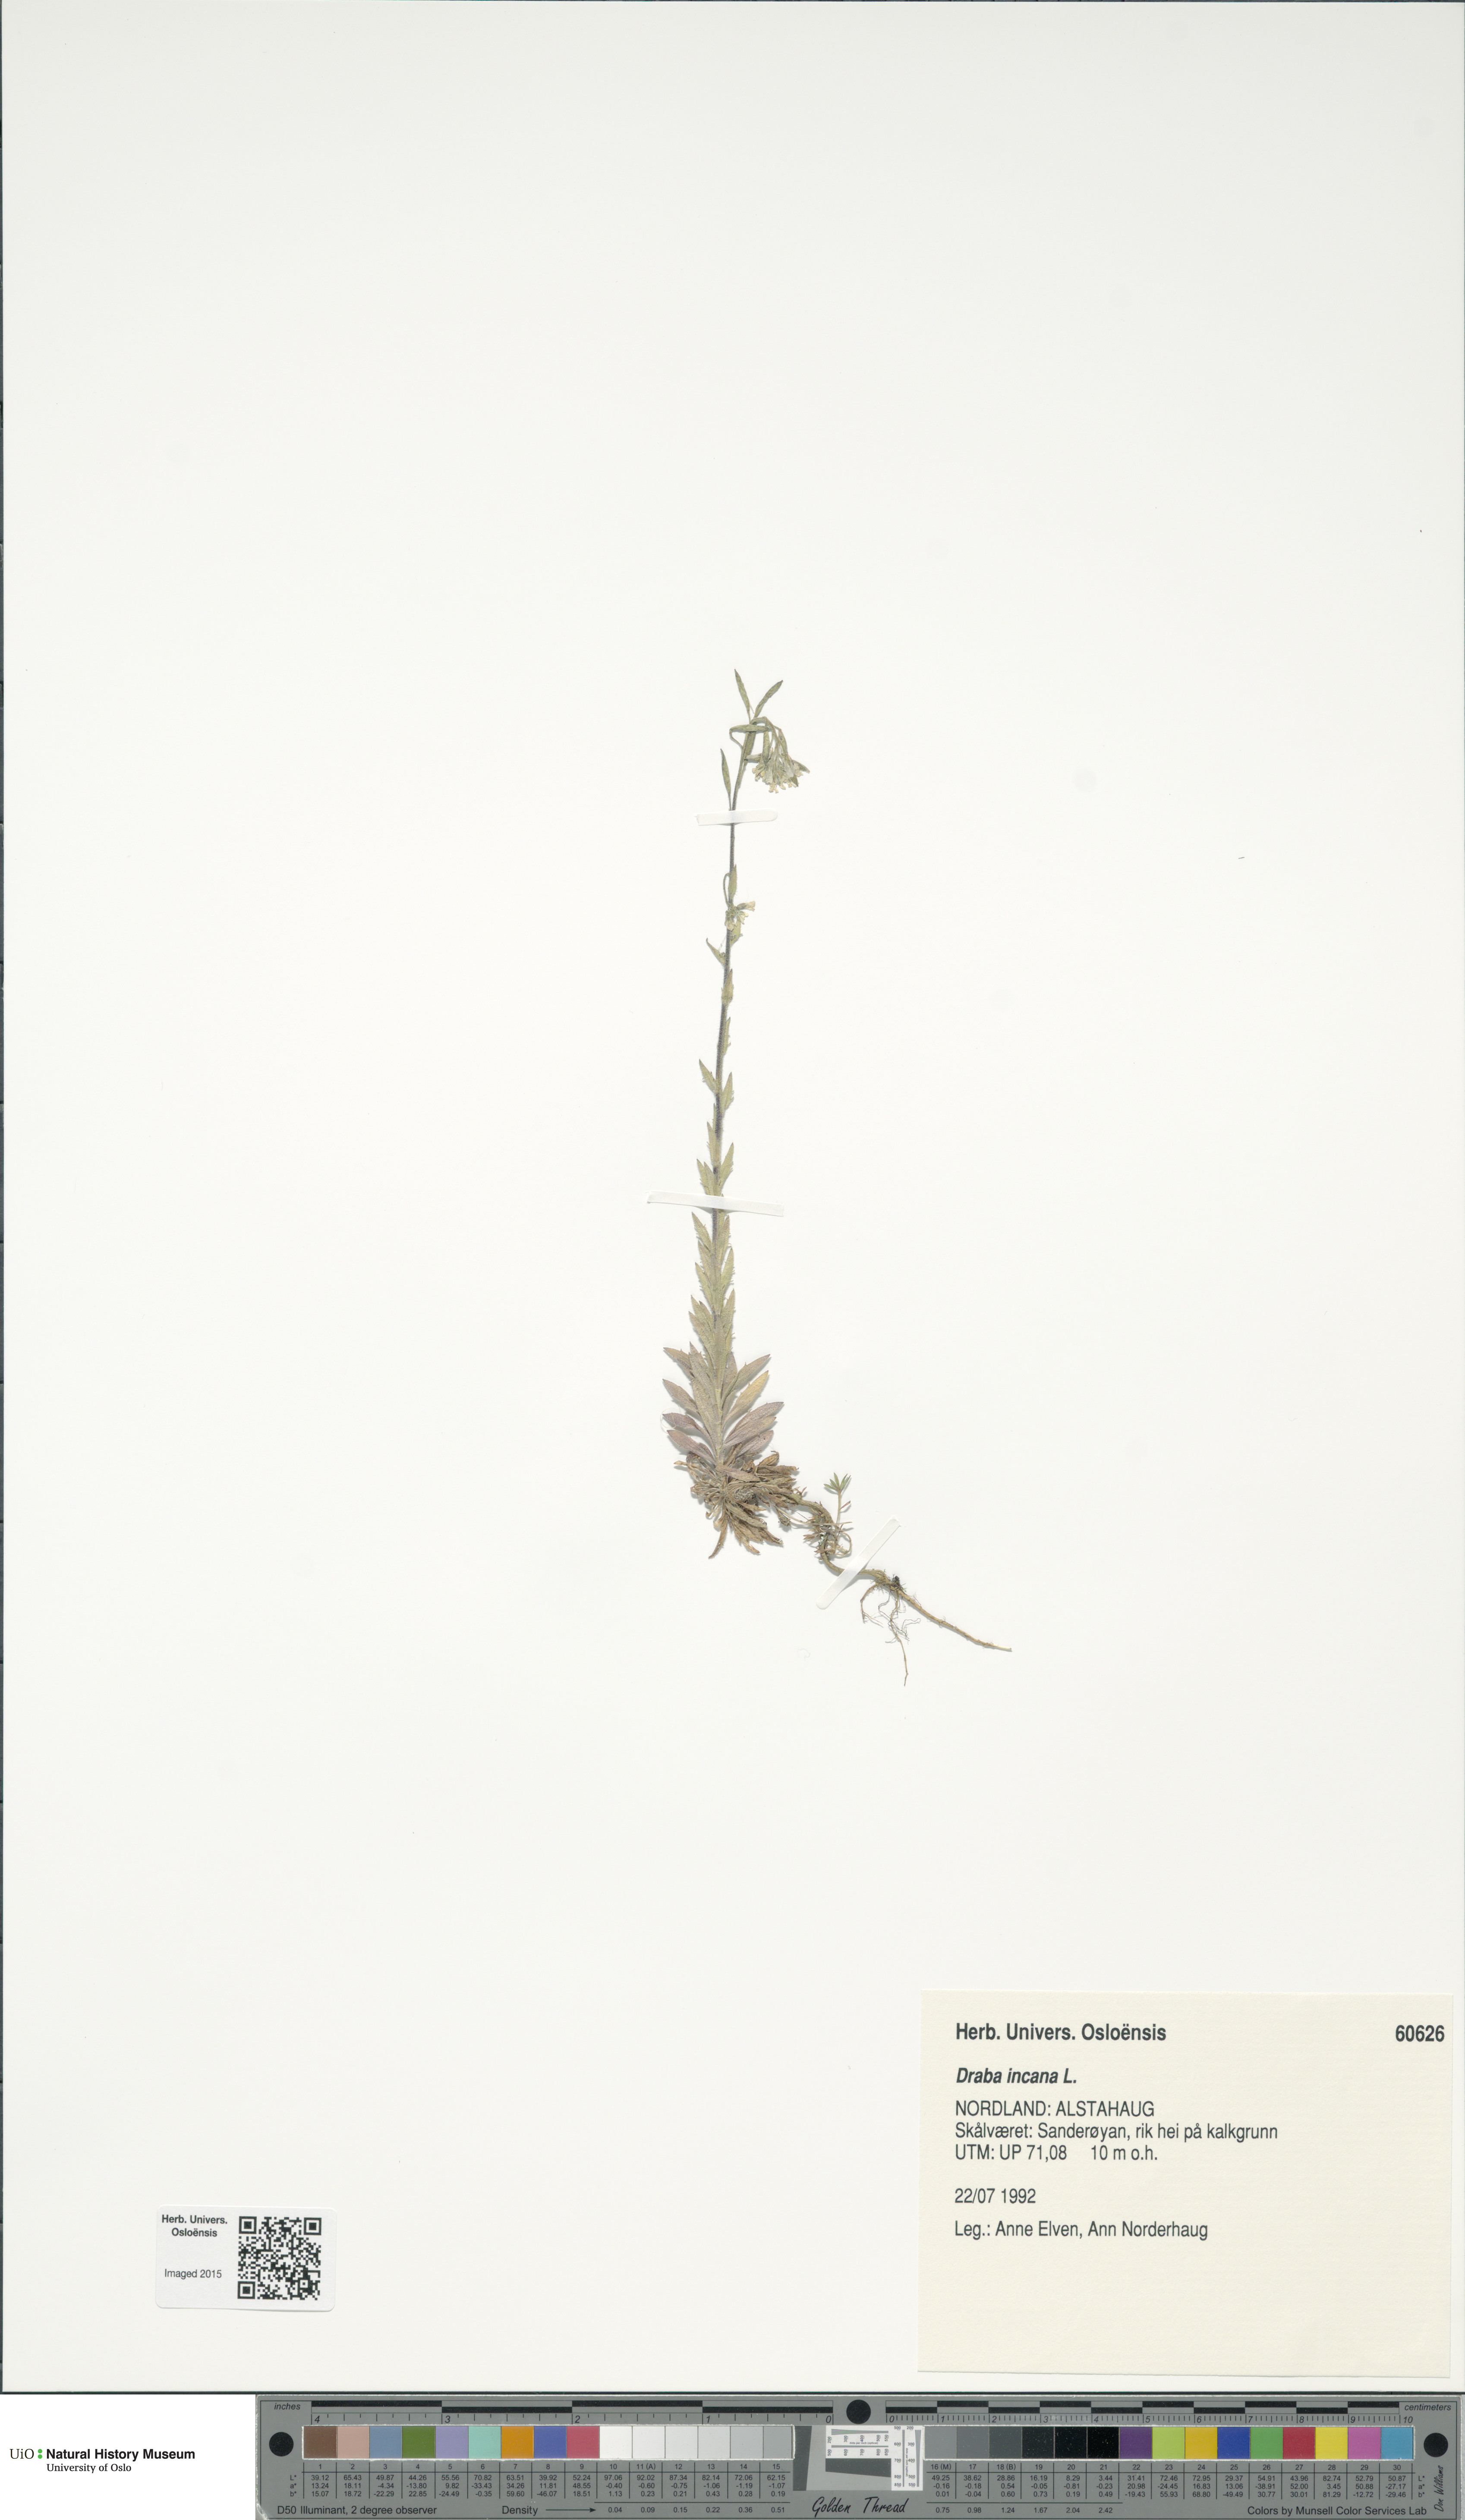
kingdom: Plantae
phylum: Tracheophyta
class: Magnoliopsida
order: Brassicales
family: Brassicaceae
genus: Draba
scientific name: Draba incana
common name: Hoary whitlow-grass
